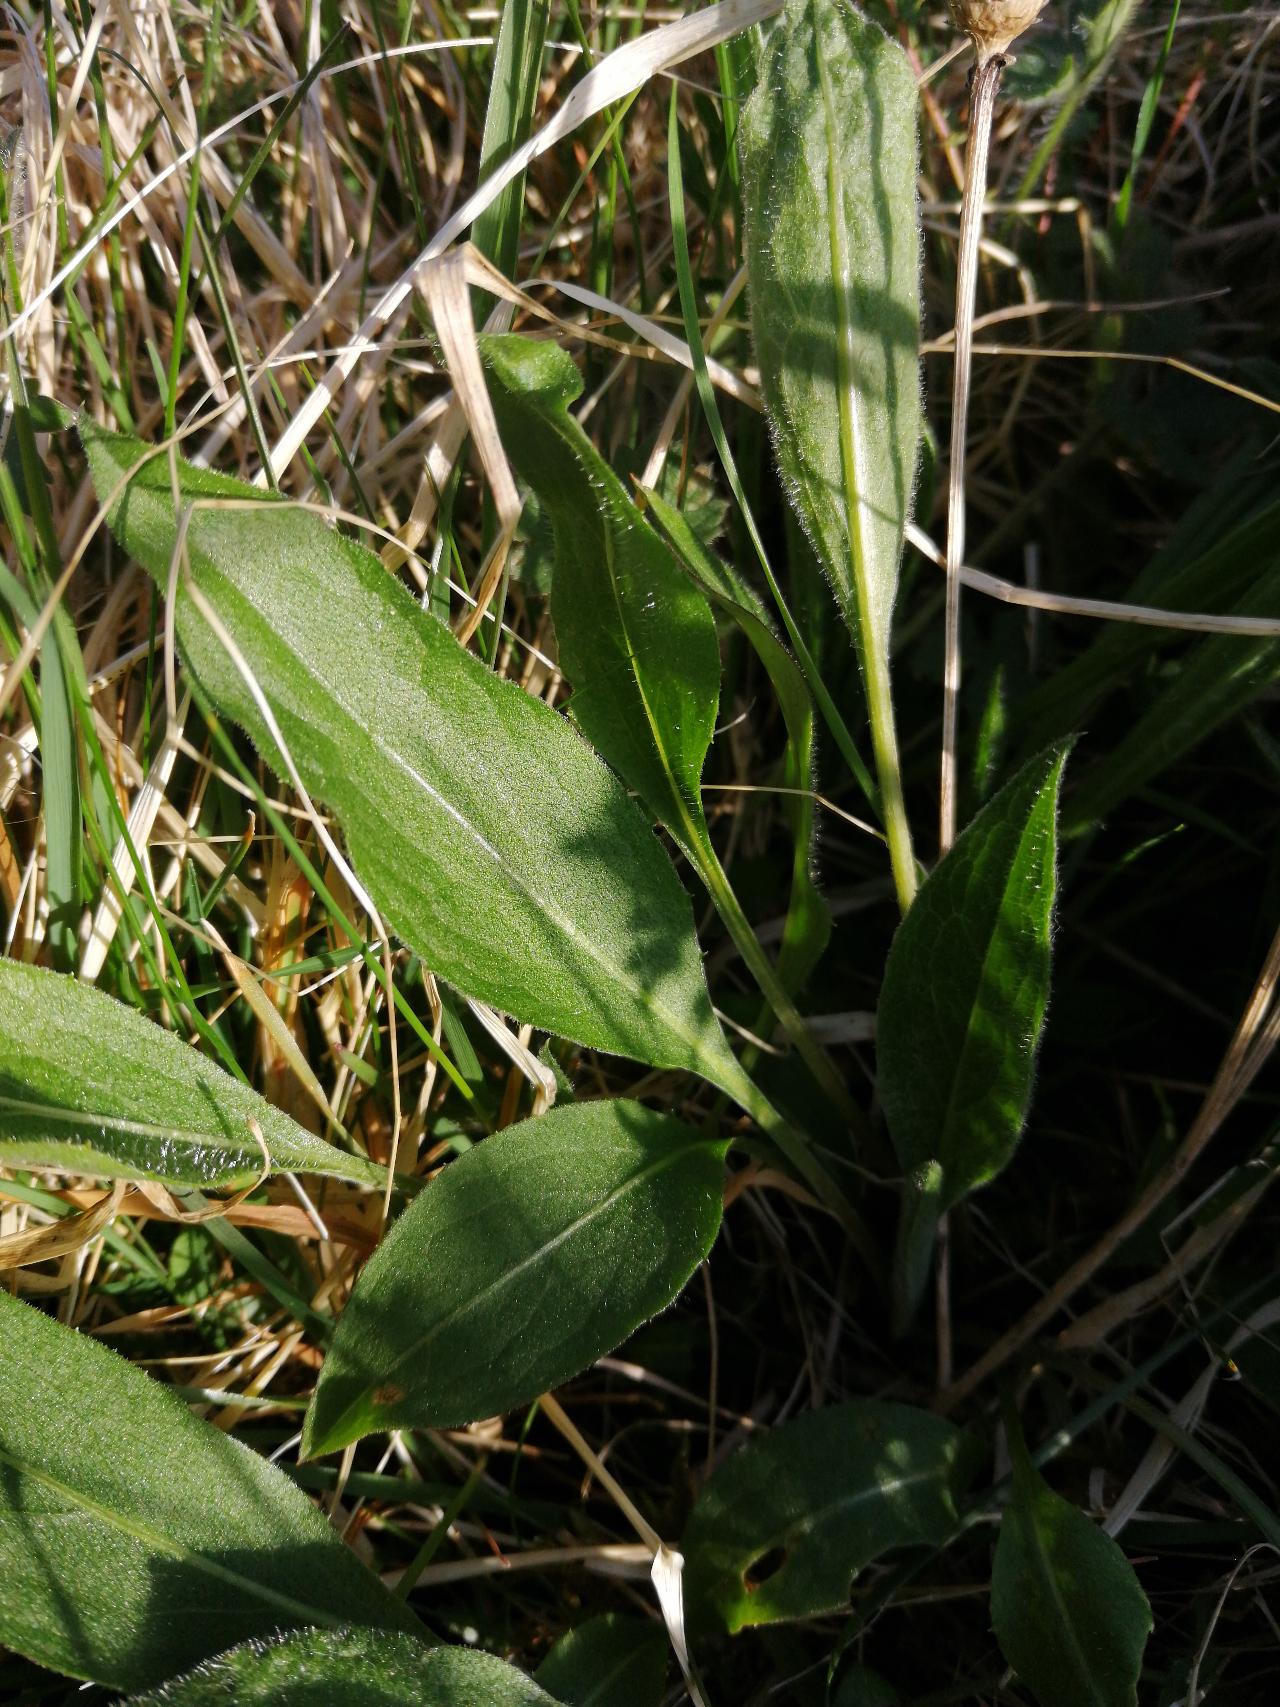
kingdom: Plantae
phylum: Tracheophyta
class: Magnoliopsida
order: Asterales
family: Asteraceae
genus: Centaurea
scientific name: Centaurea jacea
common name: Almindelig knopurt
